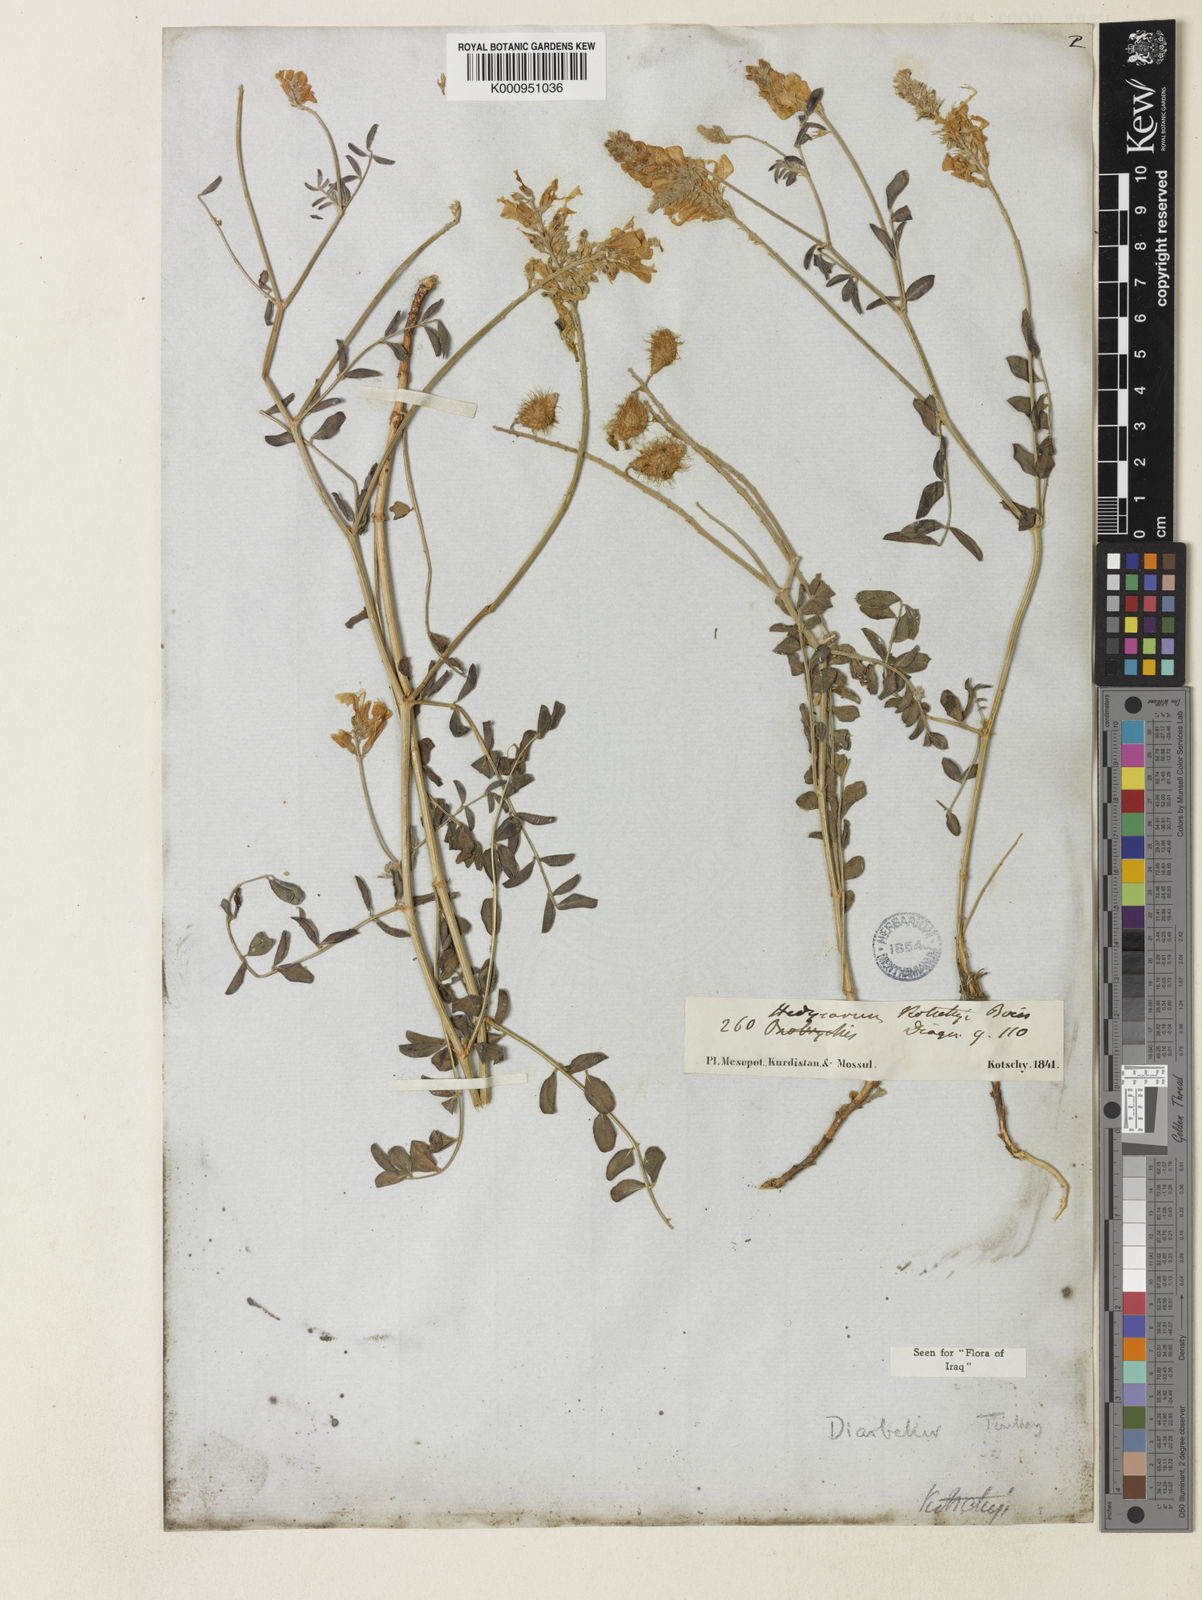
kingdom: Plantae
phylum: Tracheophyta
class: Magnoliopsida
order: Fabales
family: Fabaceae
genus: Hedysarum
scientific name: Hedysarum kotschyi
